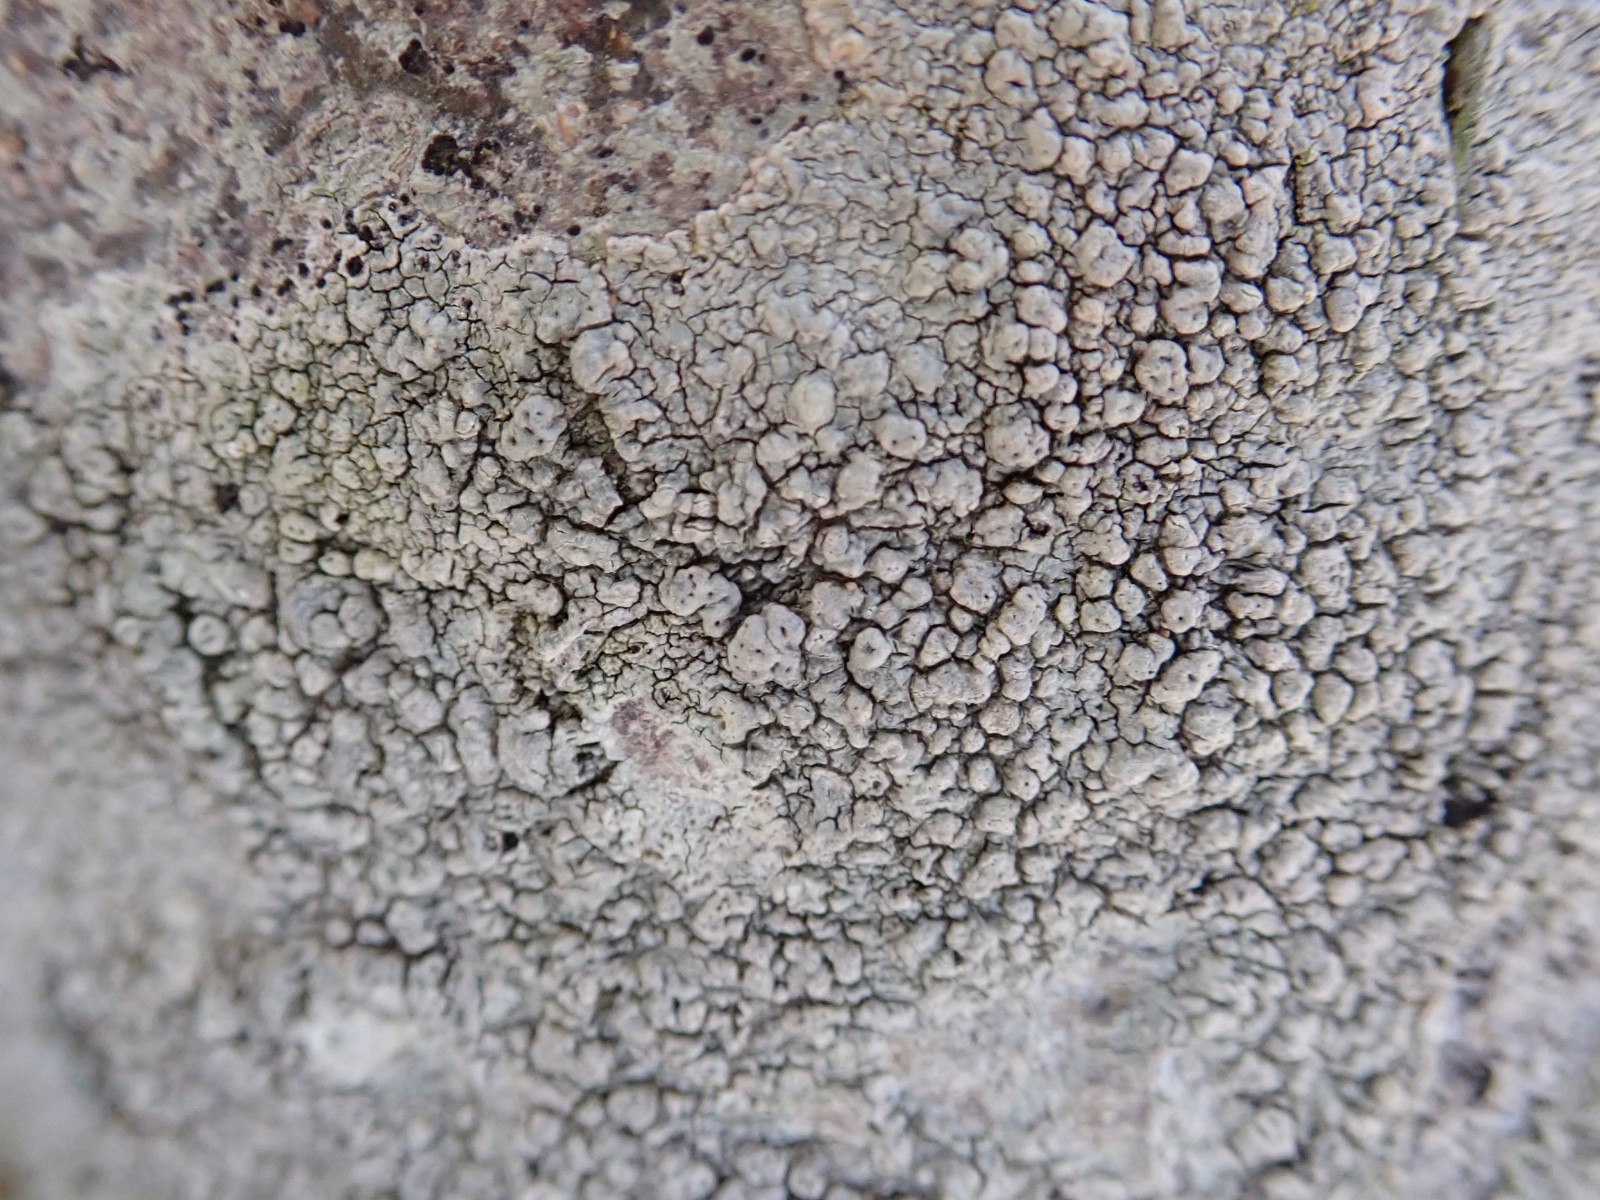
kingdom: Fungi
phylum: Ascomycota
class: Lecanoromycetes
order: Pertusariales
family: Pertusariaceae
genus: Pertusaria
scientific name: Pertusaria pertusa
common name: almindelig prikvortelav
